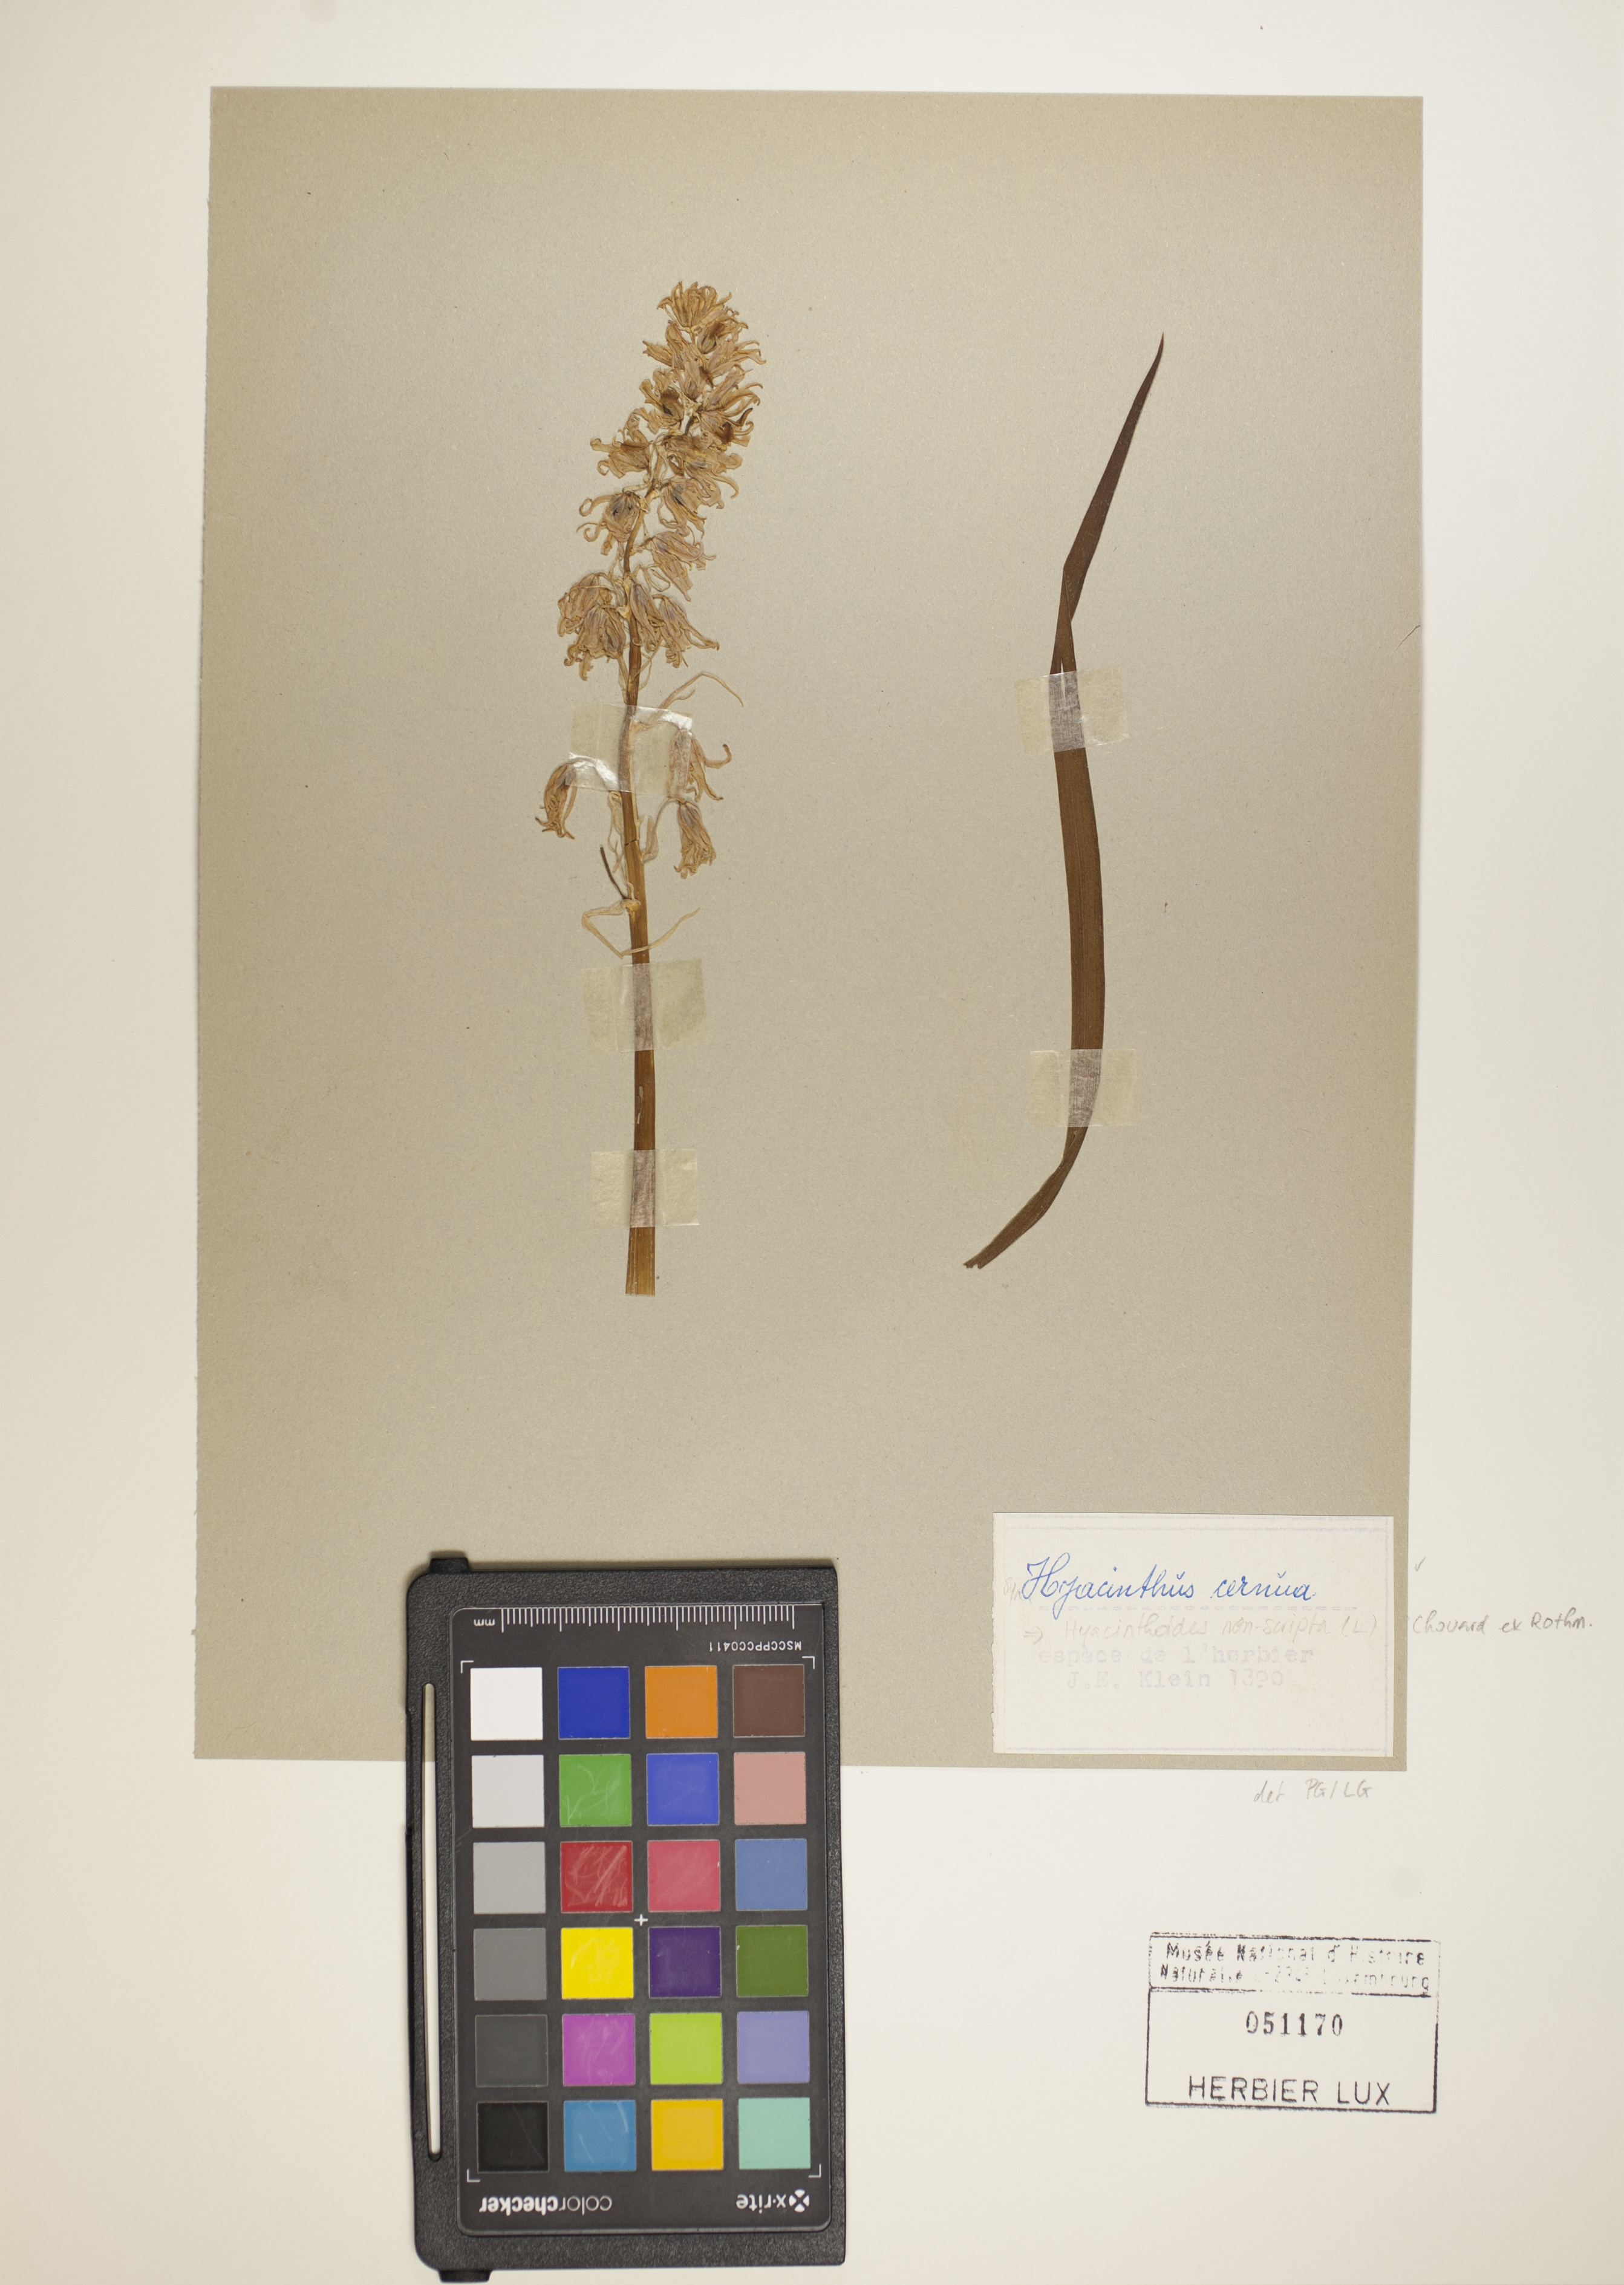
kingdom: Plantae
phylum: Tracheophyta
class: Liliopsida
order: Asparagales
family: Asparagaceae
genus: Hyacinthoides
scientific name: Hyacinthoides non-scripta
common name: Bluebell
